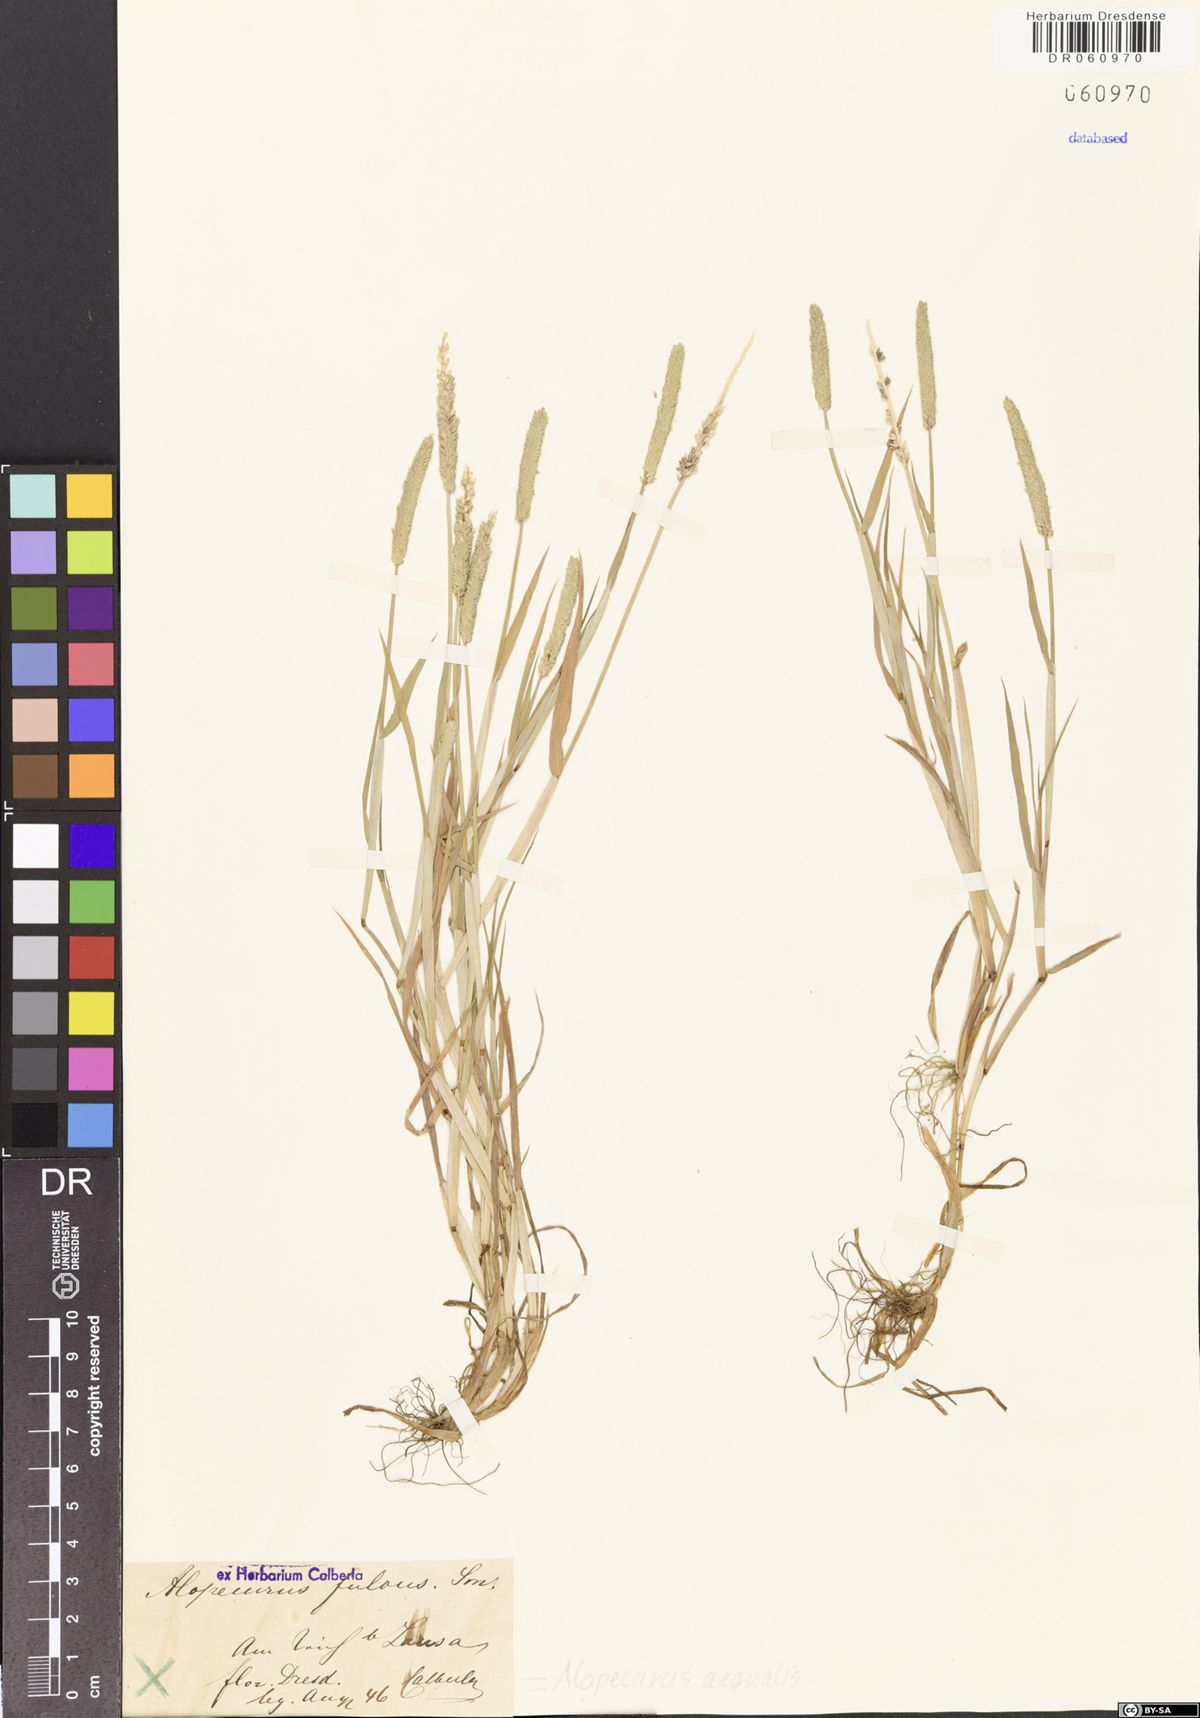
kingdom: Plantae
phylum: Tracheophyta
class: Liliopsida
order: Poales
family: Poaceae
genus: Alopecurus
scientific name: Alopecurus aequalis
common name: Orange foxtail
